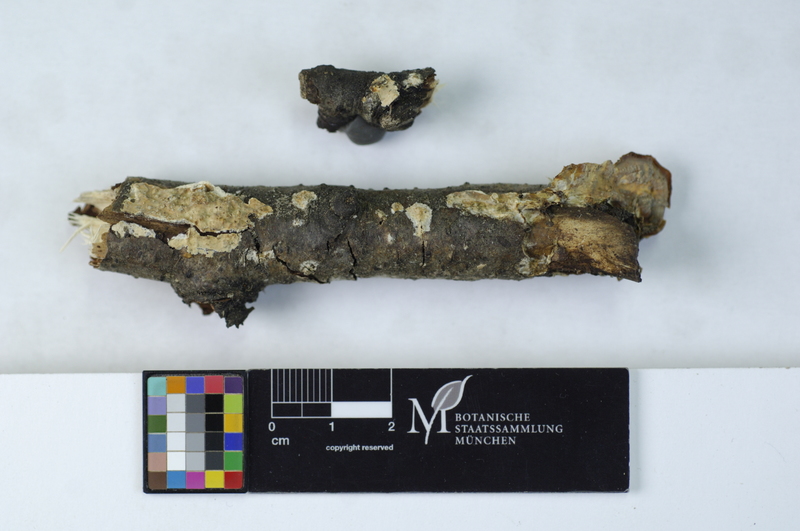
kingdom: Plantae
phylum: Tracheophyta
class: Magnoliopsida
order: Fagales
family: Betulaceae
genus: Betula
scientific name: Betula
